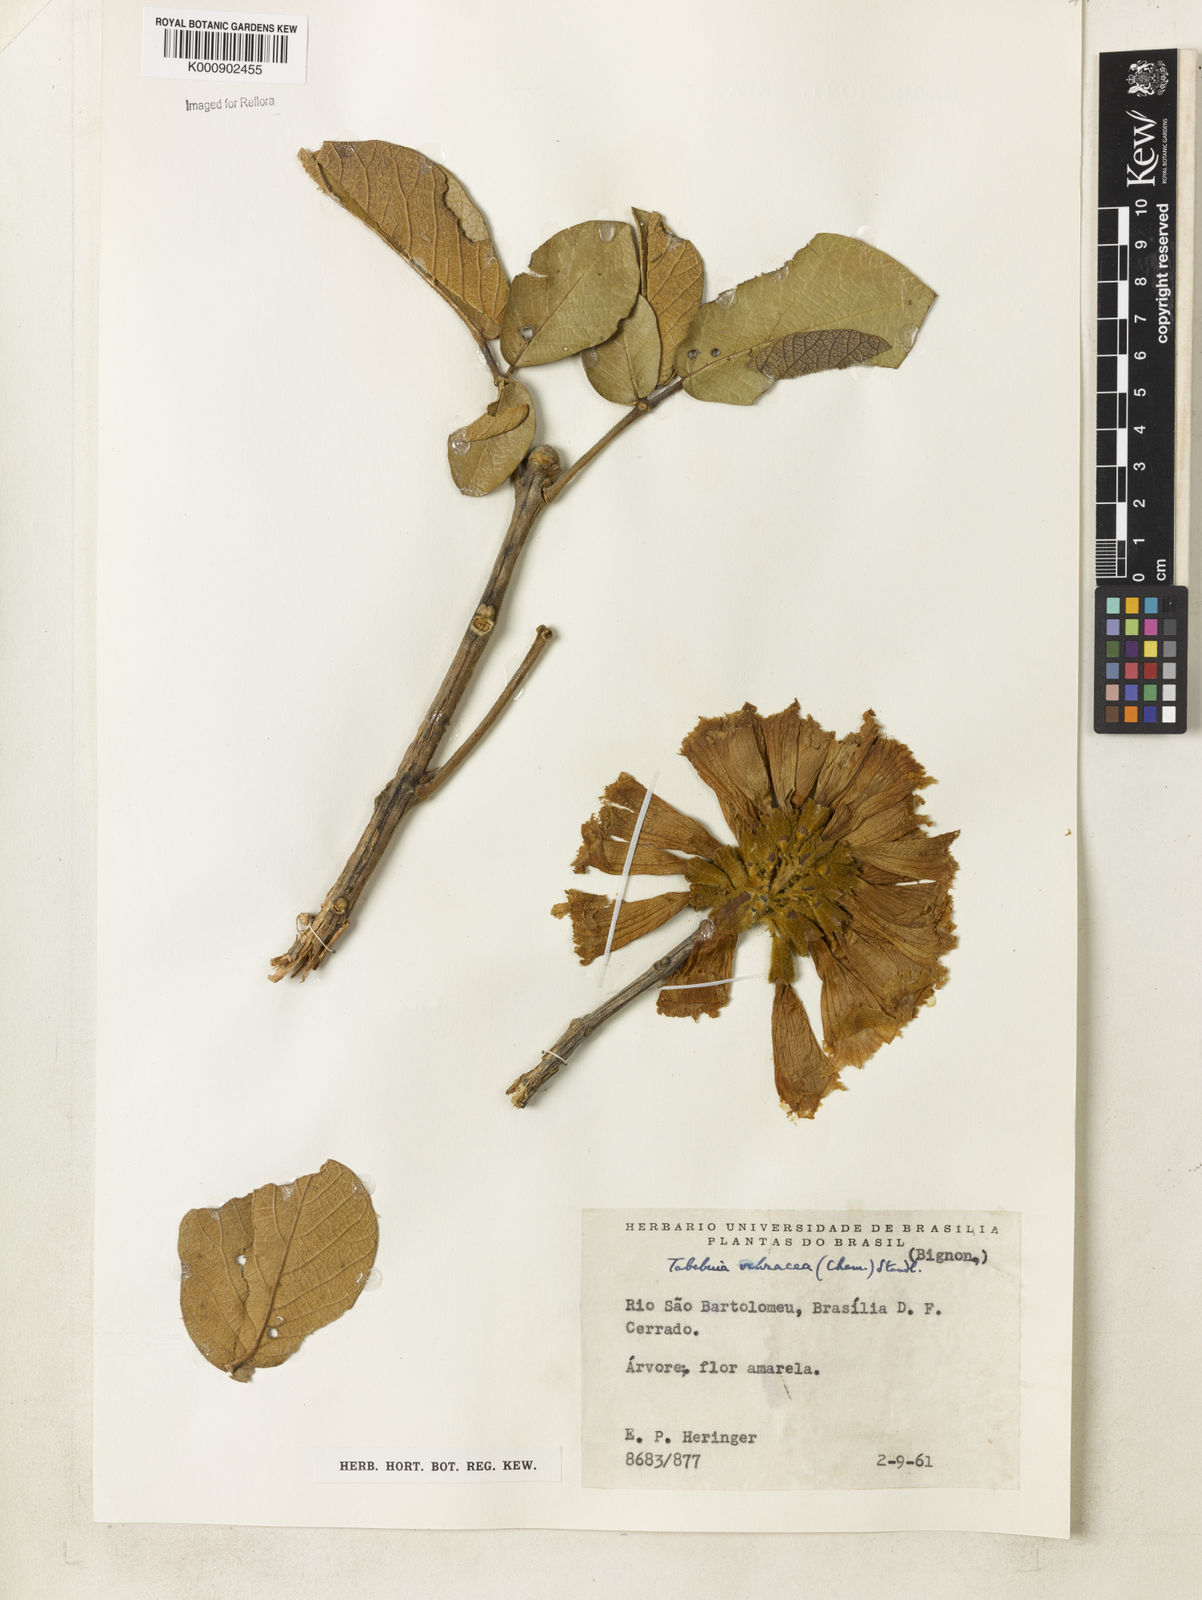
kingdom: Plantae
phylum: Tracheophyta
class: Magnoliopsida
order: Lamiales
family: Bignoniaceae
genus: Handroanthus
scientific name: Handroanthus ochraceus
